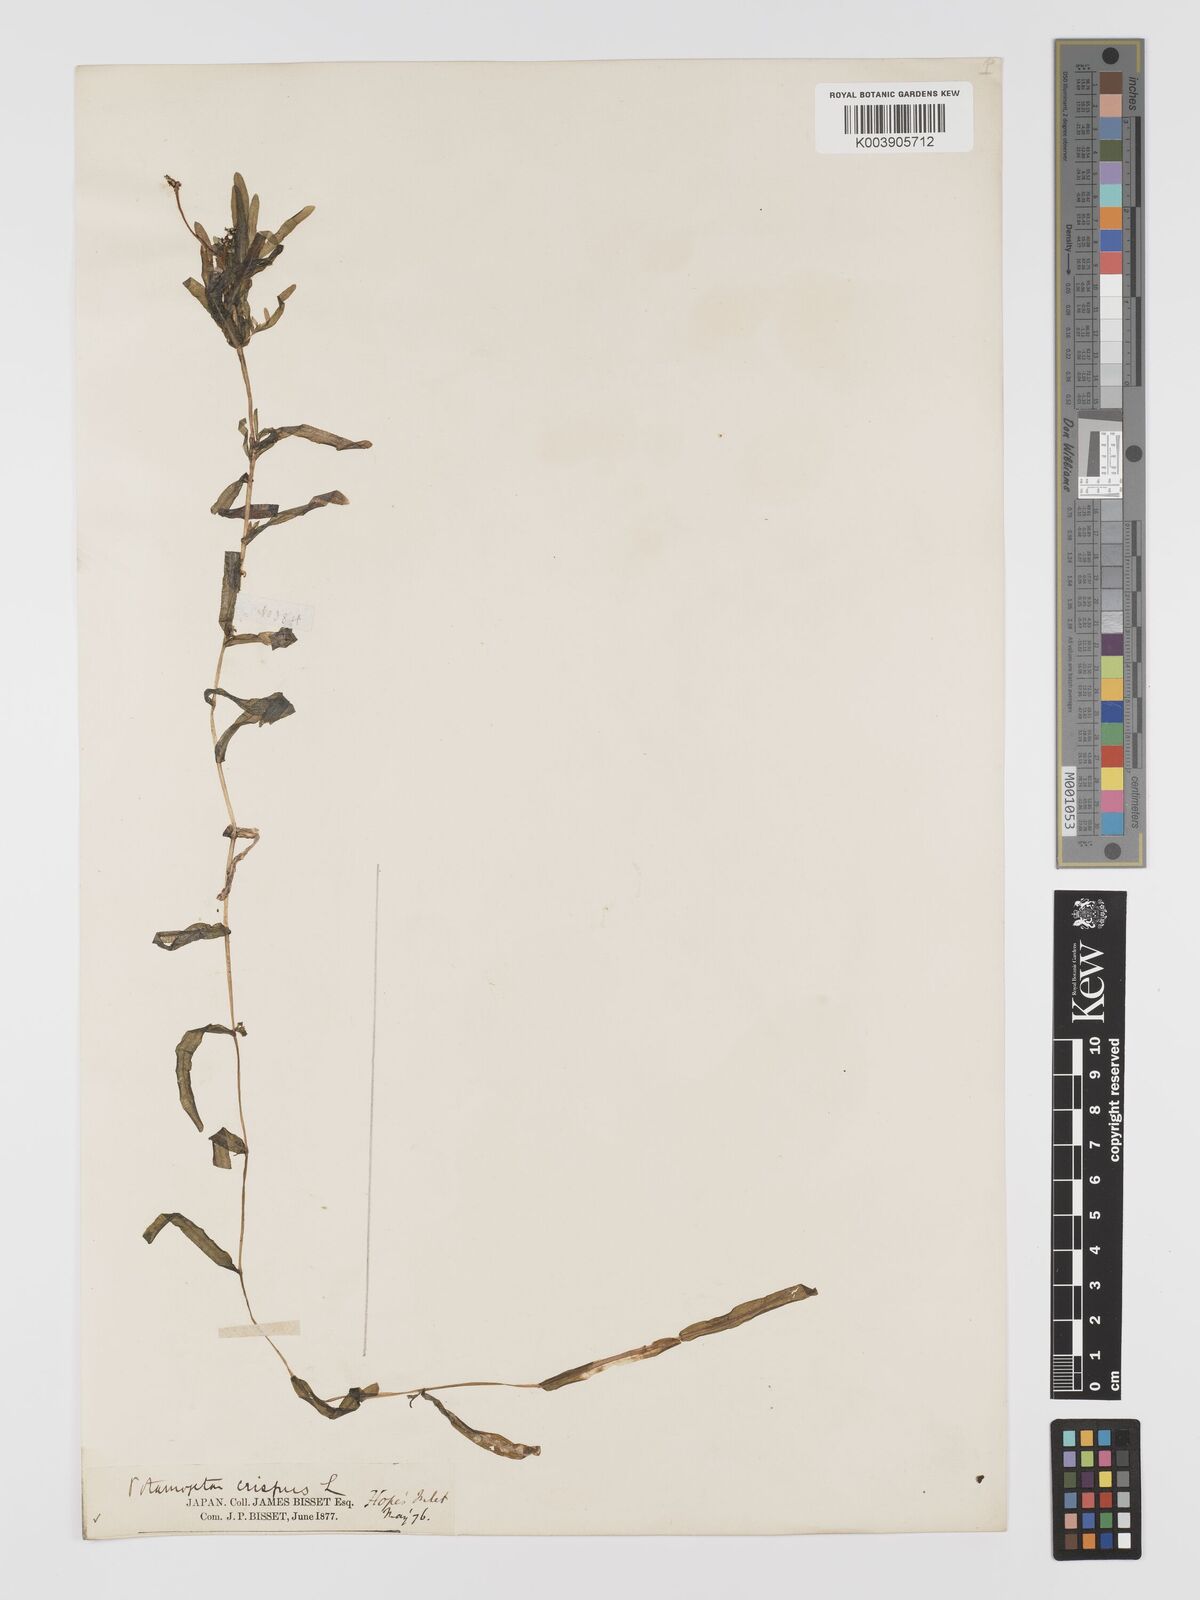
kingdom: Plantae
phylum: Tracheophyta
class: Liliopsida
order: Alismatales
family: Potamogetonaceae
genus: Potamogeton
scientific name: Potamogeton crispus
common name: Curled pondweed
